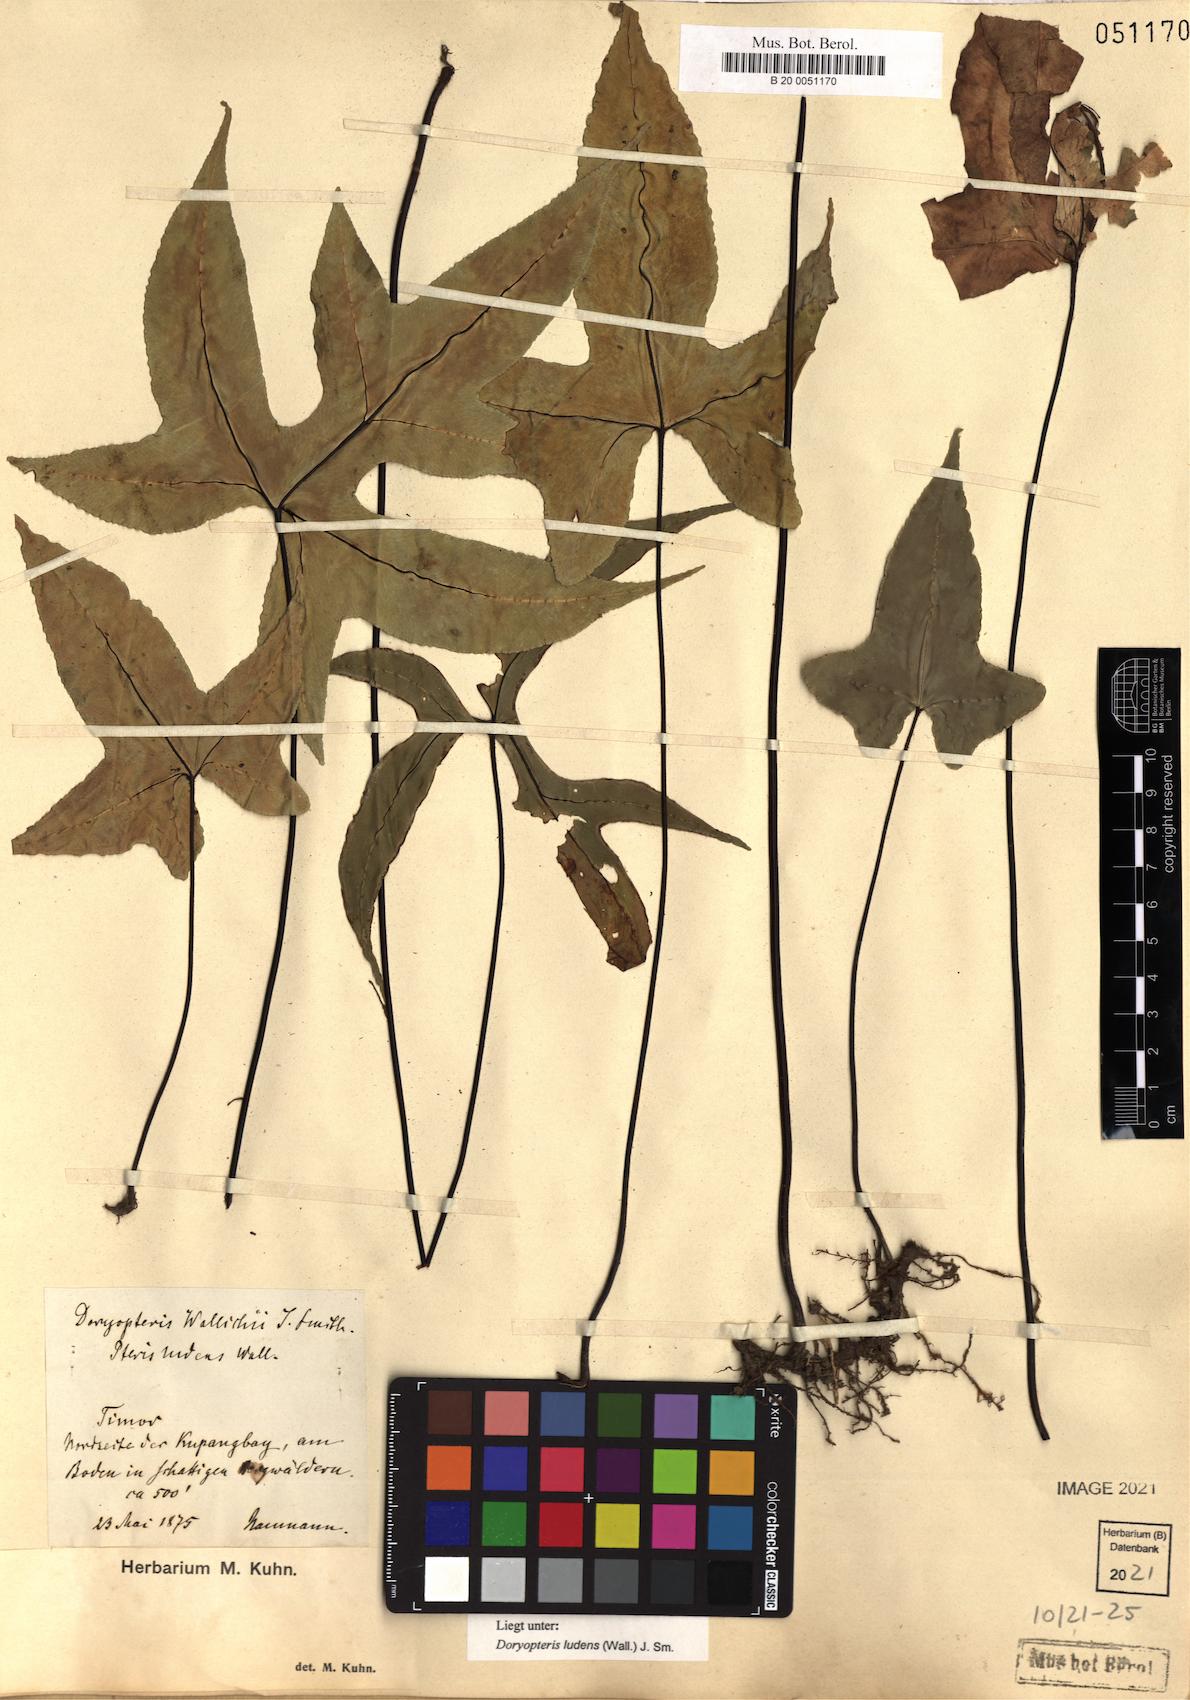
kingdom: Plantae
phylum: Tracheophyta
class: Polypodiopsida
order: Polypodiales
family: Pteridaceae
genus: Calciphilopteris
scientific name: Calciphilopteris ludens
